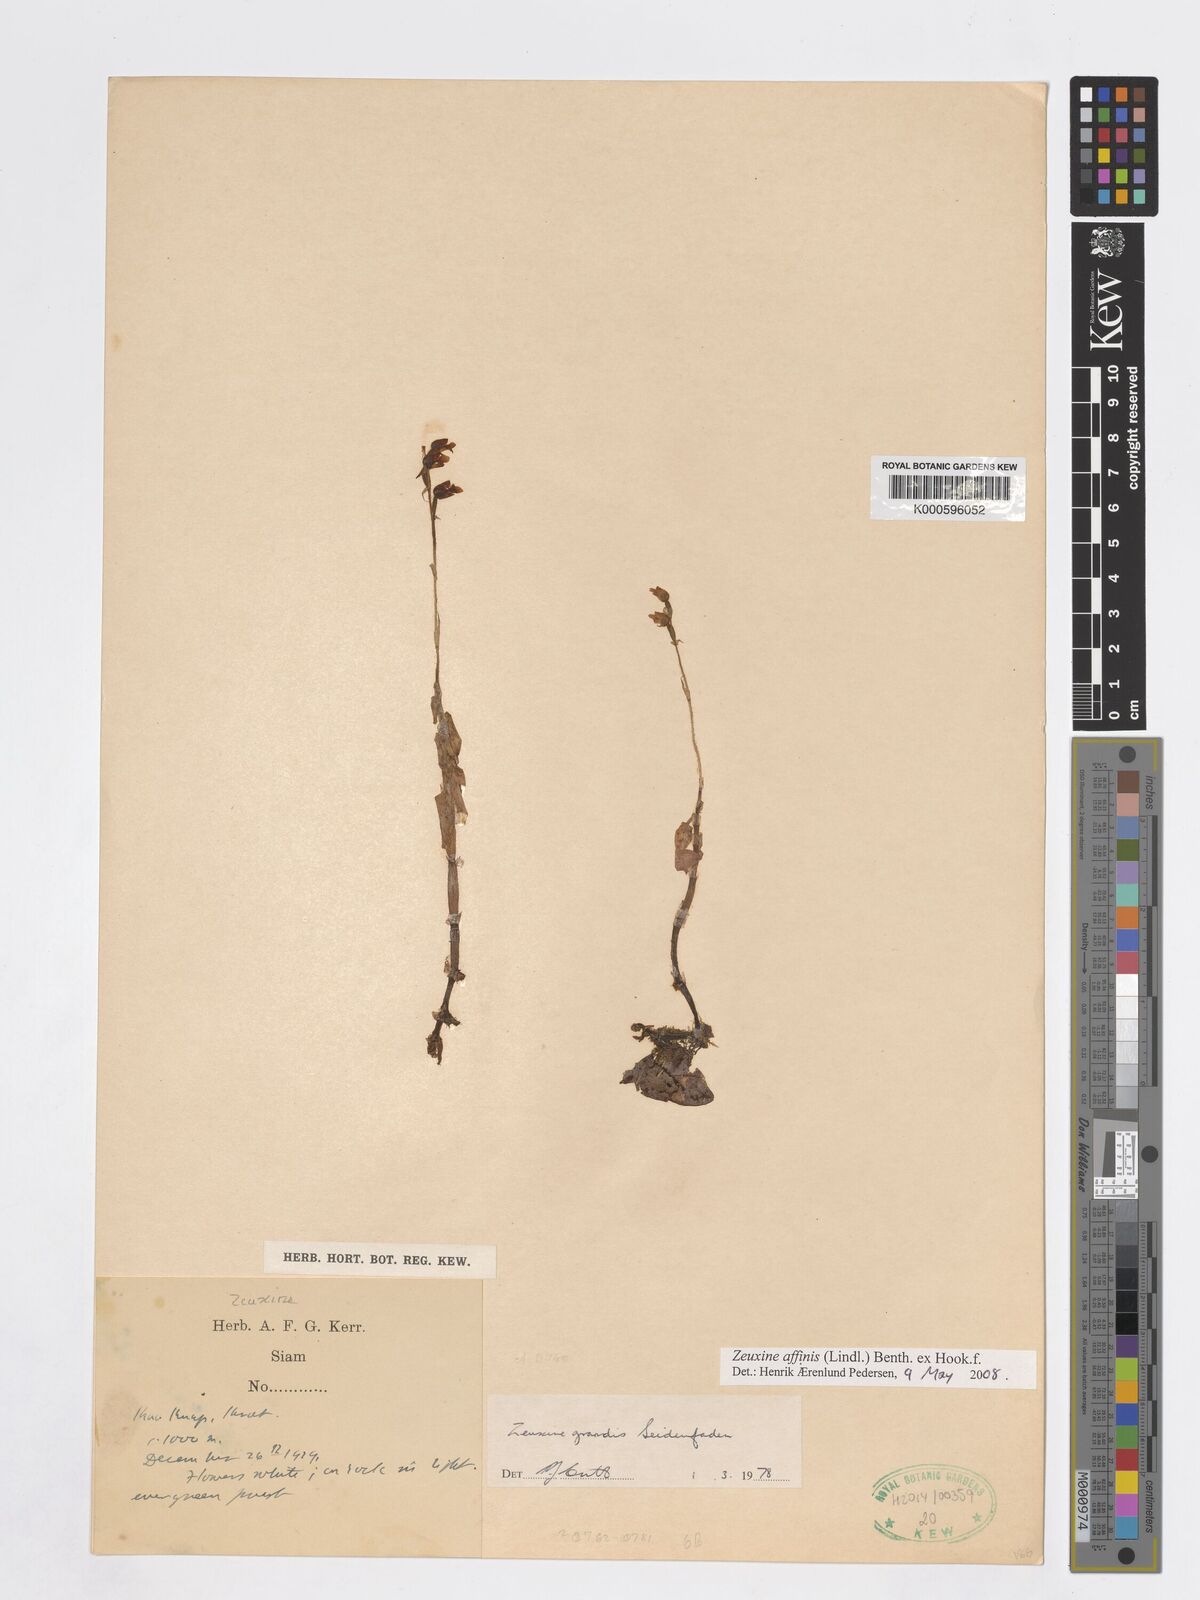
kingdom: Plantae
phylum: Tracheophyta
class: Liliopsida
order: Asparagales
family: Orchidaceae
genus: Zeuxine
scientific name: Zeuxine affinis
